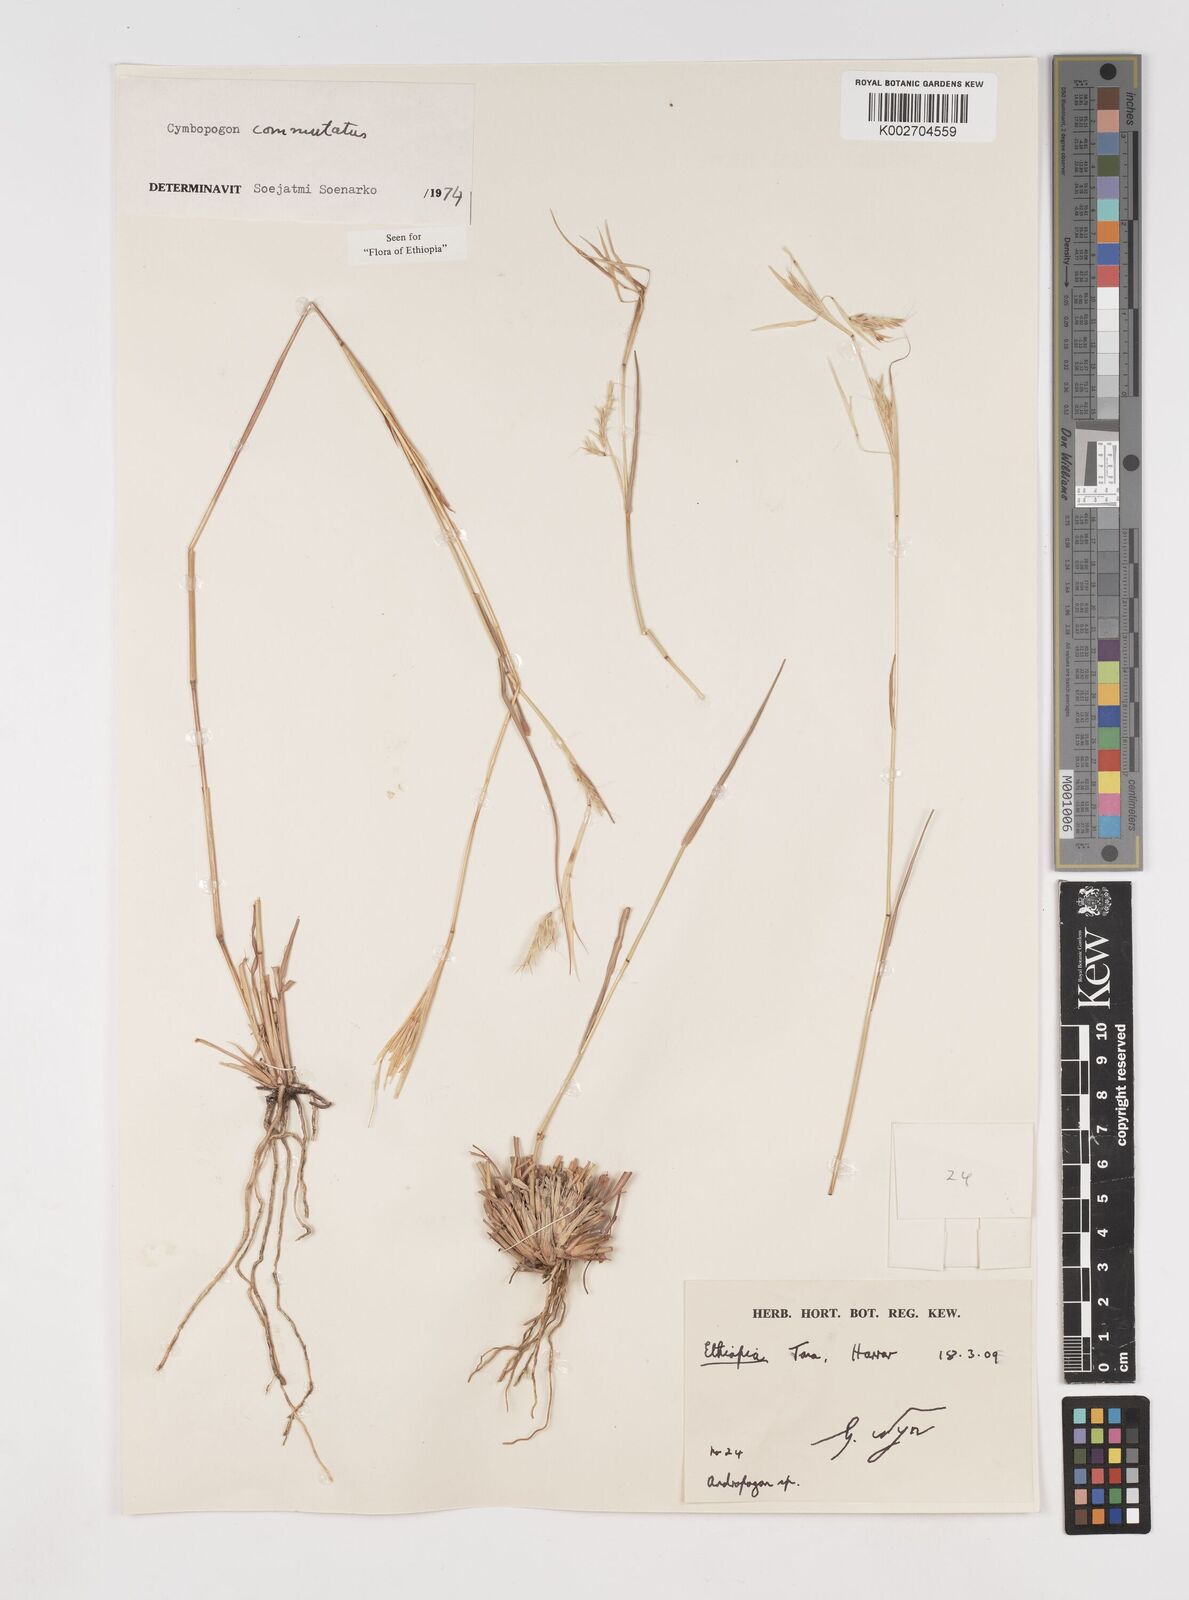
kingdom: Plantae
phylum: Tracheophyta
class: Liliopsida
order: Poales
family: Poaceae
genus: Cymbopogon
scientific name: Cymbopogon commutatus
